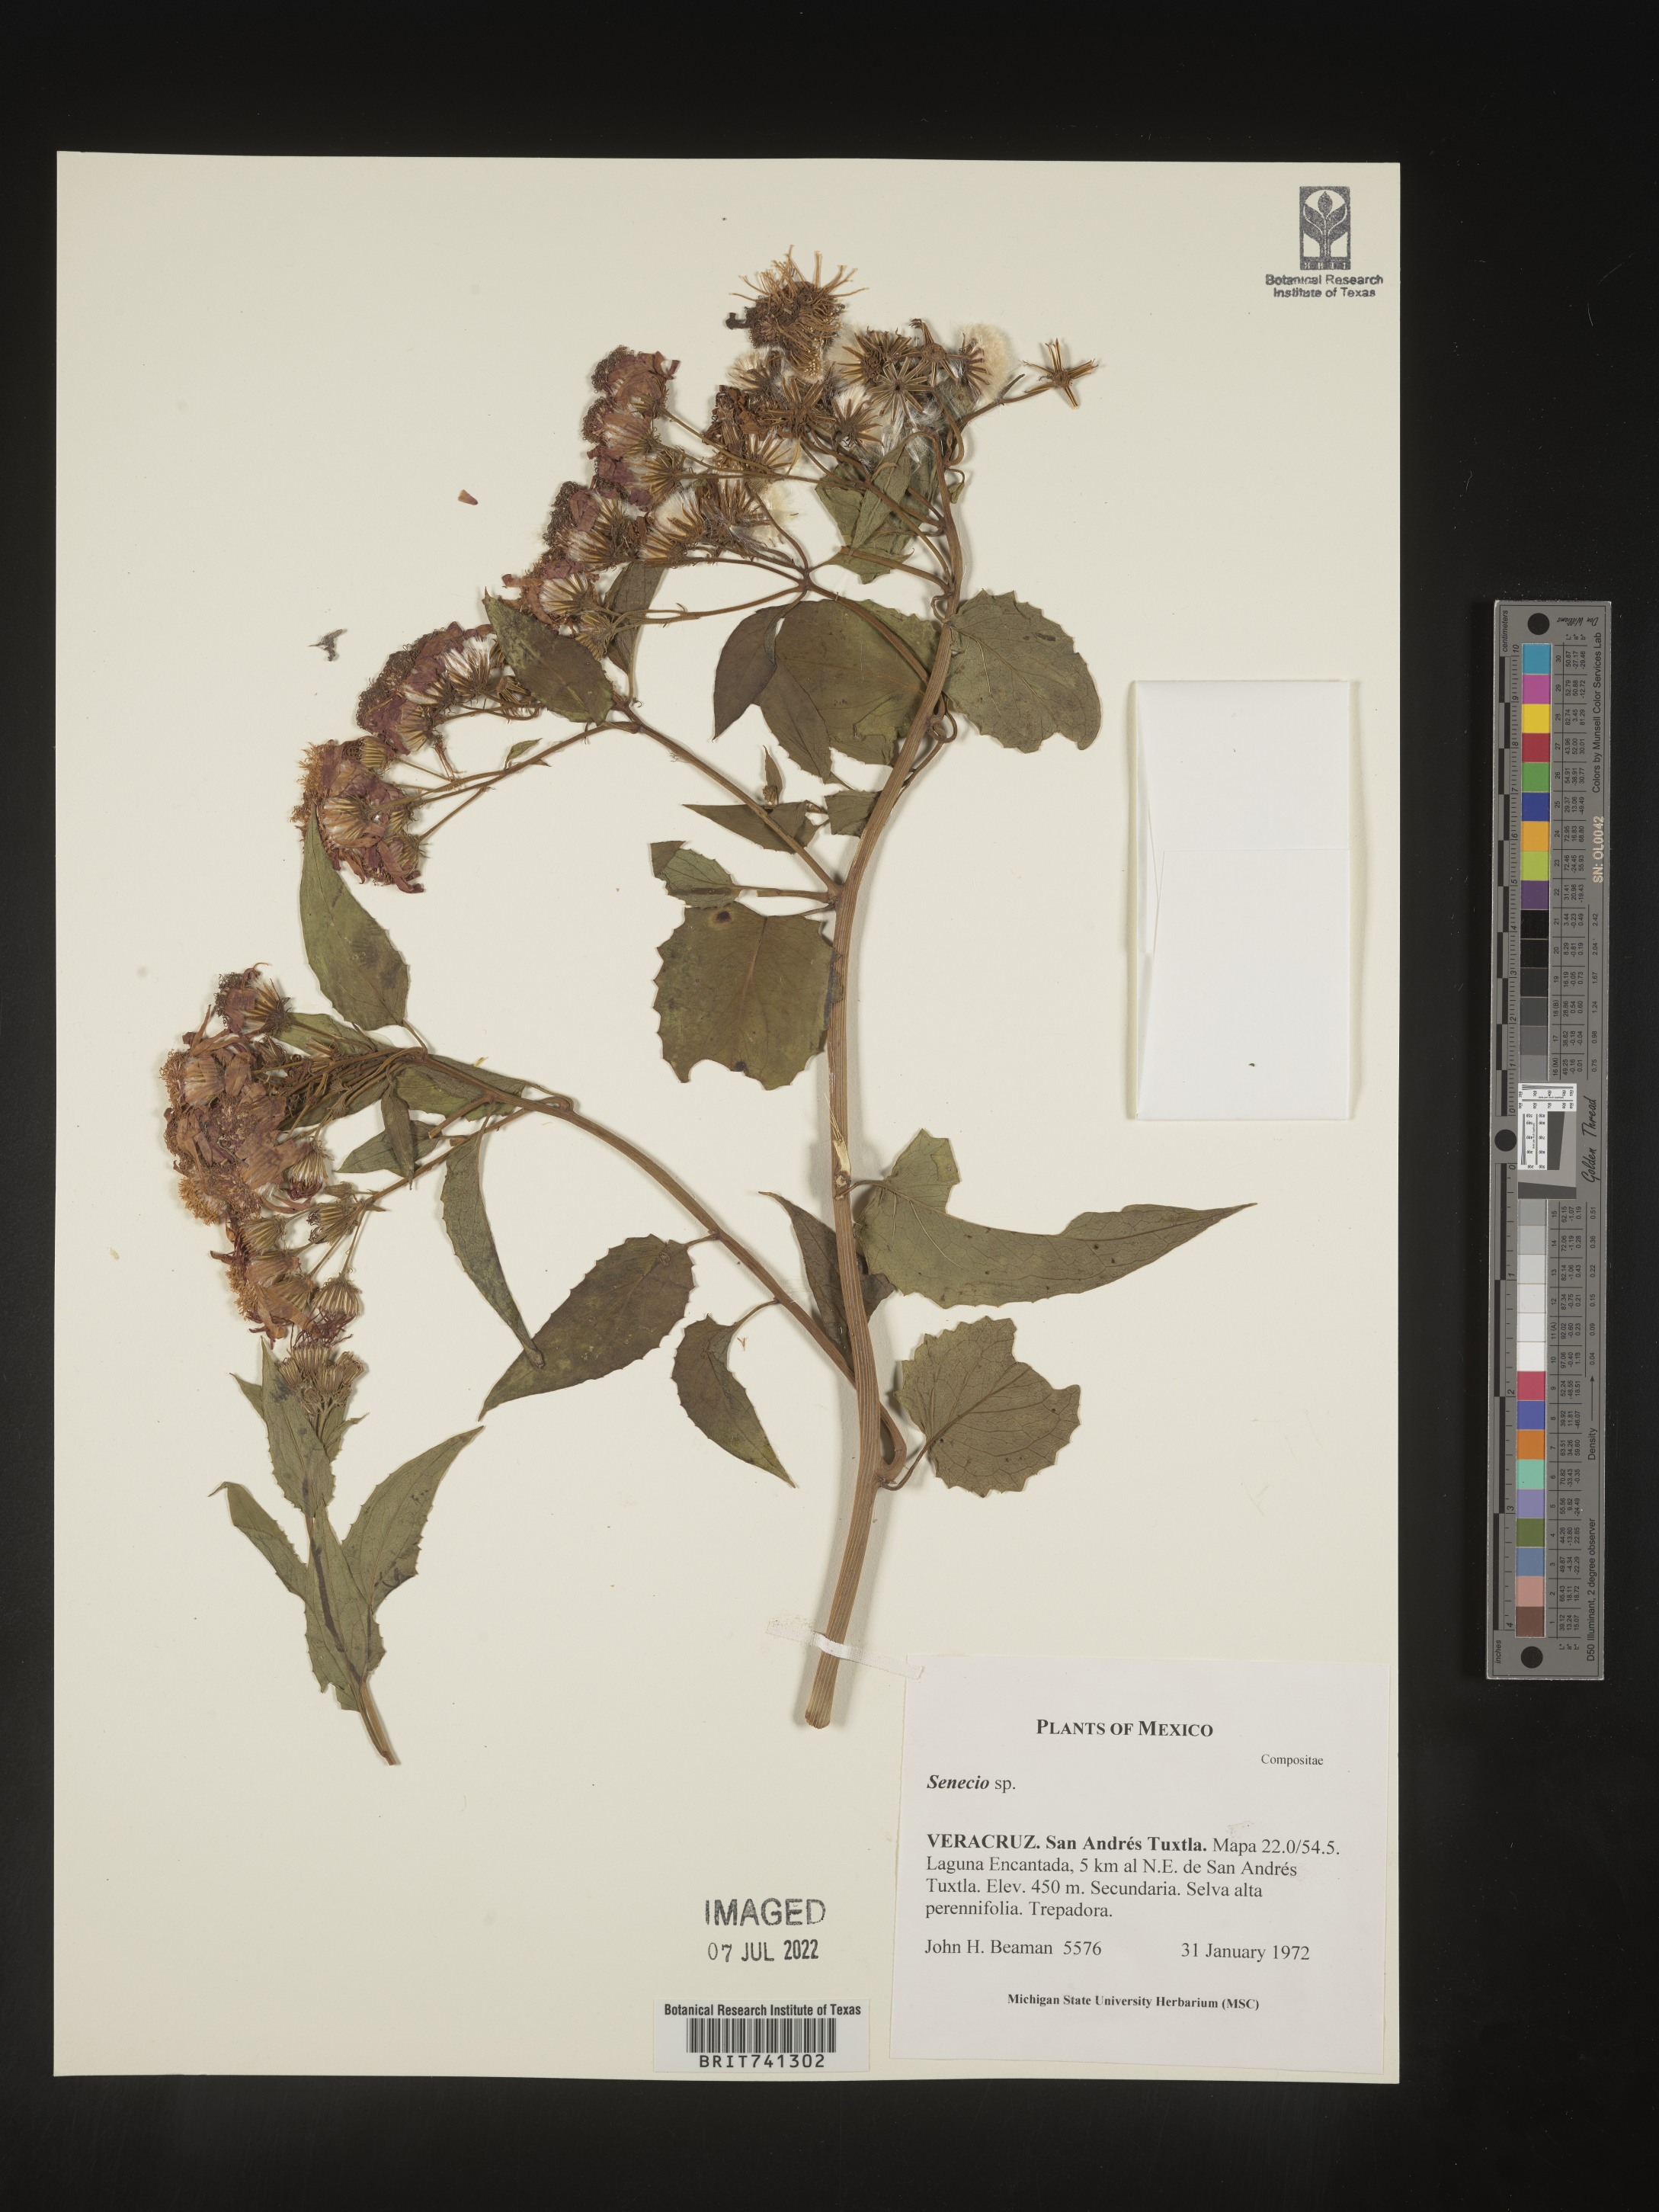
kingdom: Plantae
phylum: Tracheophyta
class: Magnoliopsida
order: Asterales
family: Asteraceae
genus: Senecio
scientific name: Senecio
